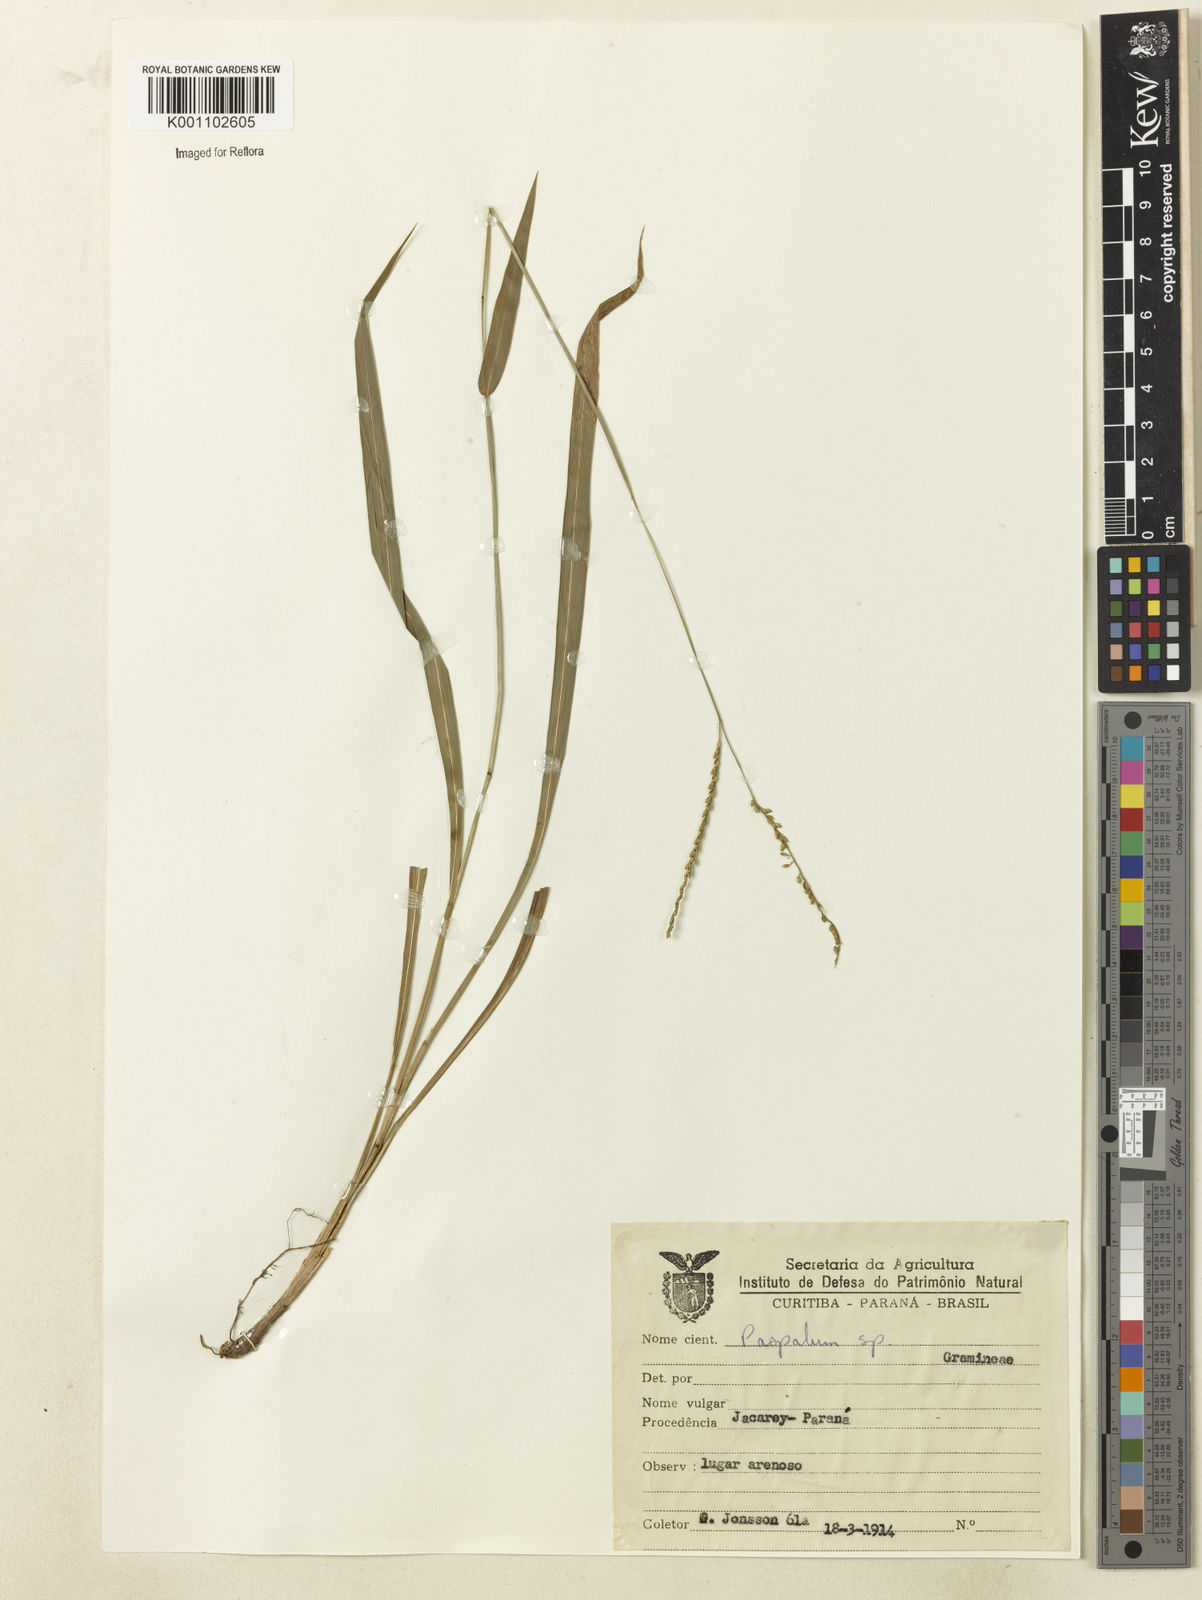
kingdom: Plantae
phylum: Tracheophyta
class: Liliopsida
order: Poales
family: Poaceae
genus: Paspalum
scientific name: Paspalum molle
